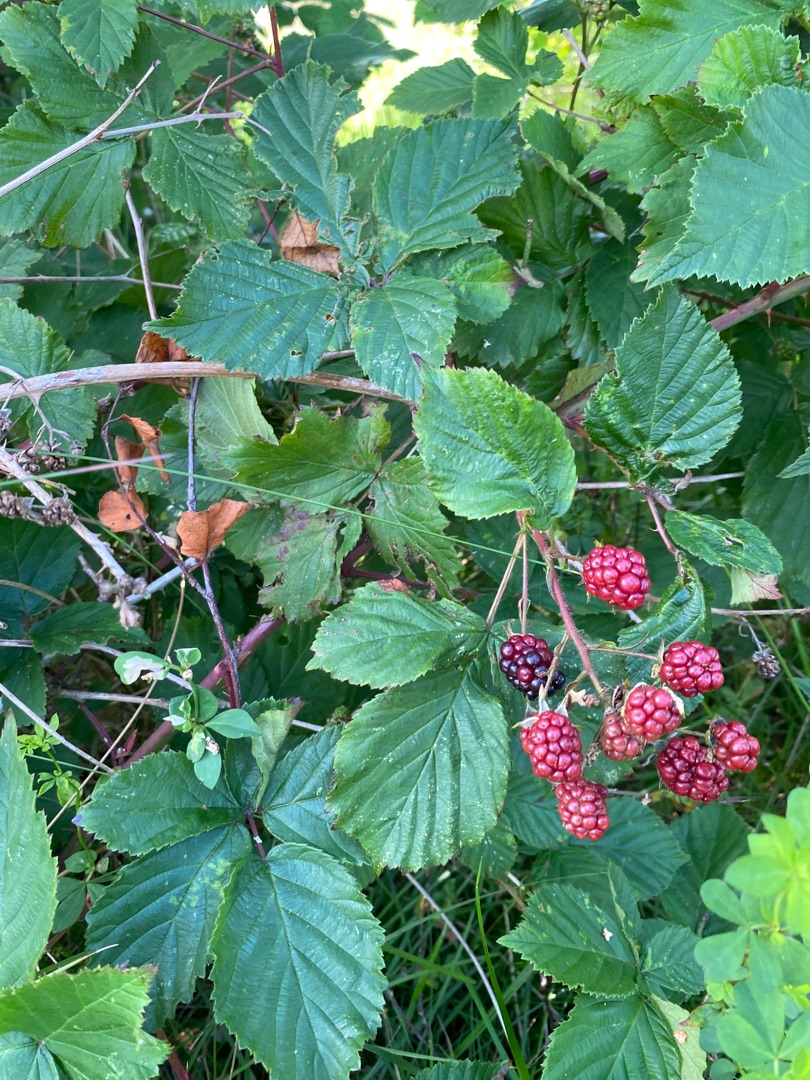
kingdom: Plantae
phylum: Tracheophyta
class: Magnoliopsida
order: Rosales
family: Rosaceae
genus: Rubus
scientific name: Rubus
